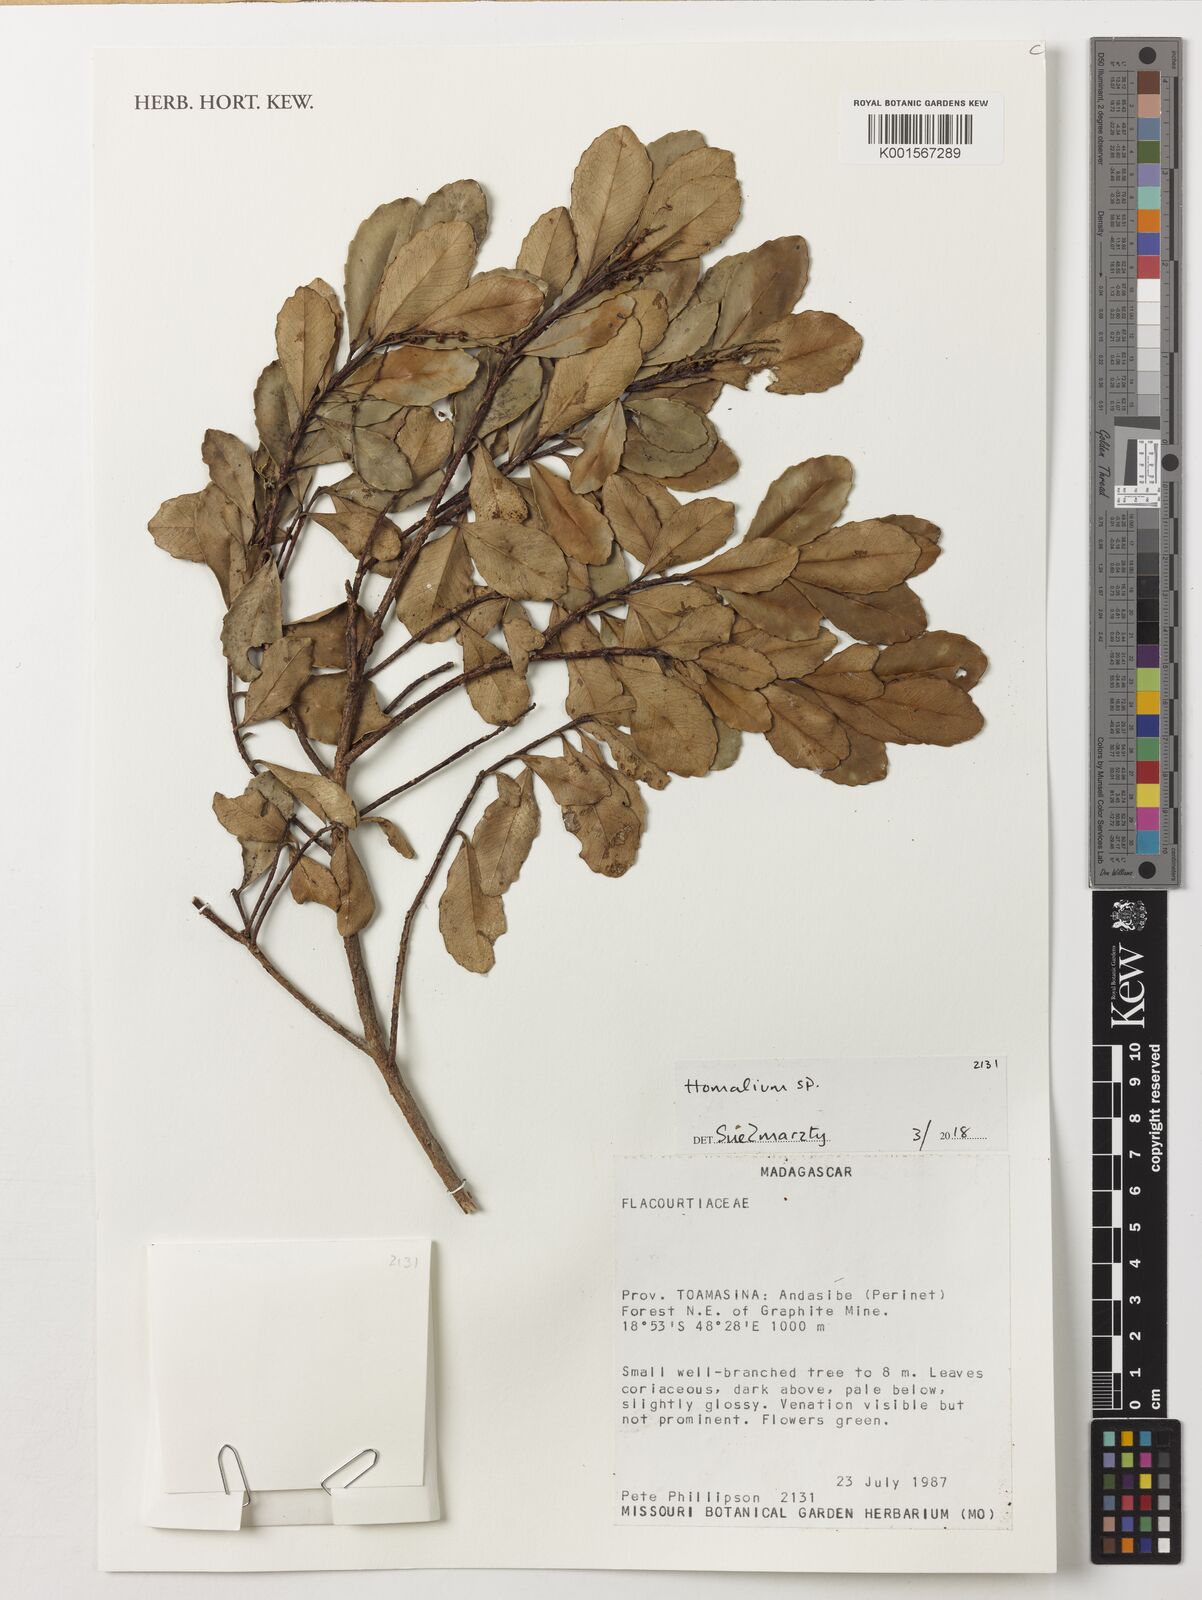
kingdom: Plantae
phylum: Tracheophyta
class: Magnoliopsida
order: Malpighiales
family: Salicaceae
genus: Homalium
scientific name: Homalium
